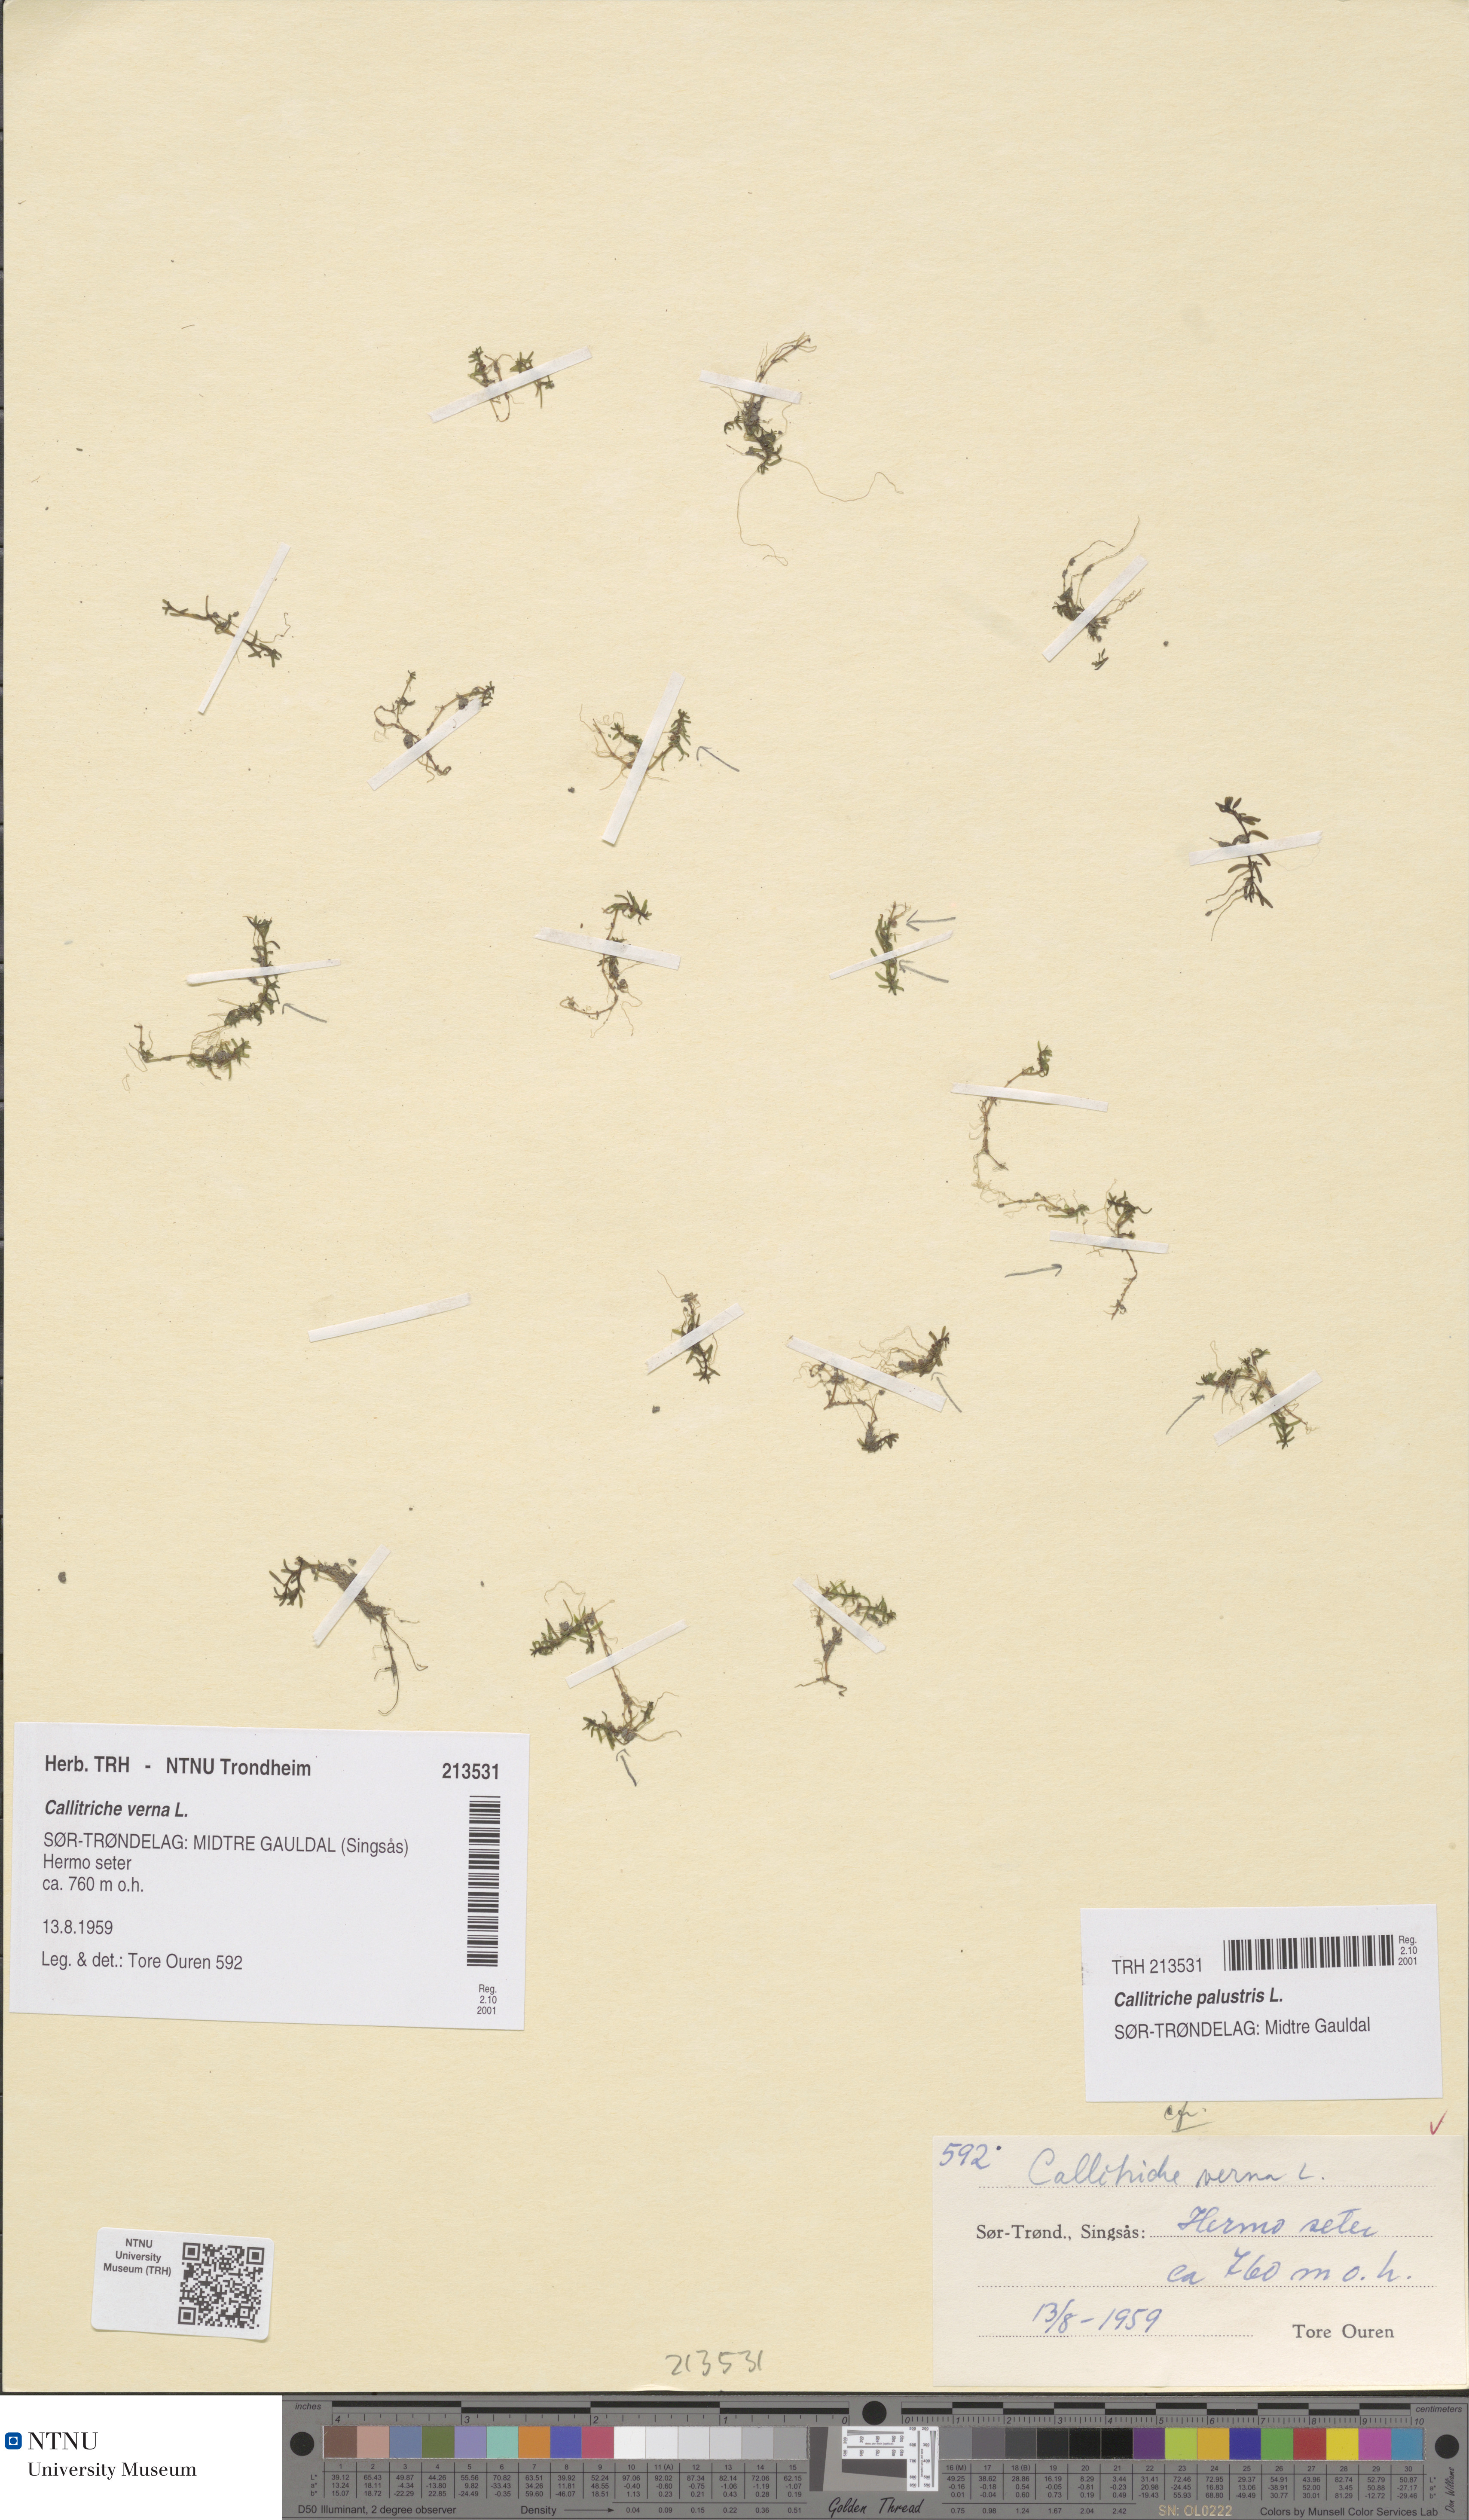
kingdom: Plantae
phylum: Tracheophyta
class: Magnoliopsida
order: Lamiales
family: Plantaginaceae
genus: Callitriche
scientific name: Callitriche palustris
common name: Spring water-starwort
